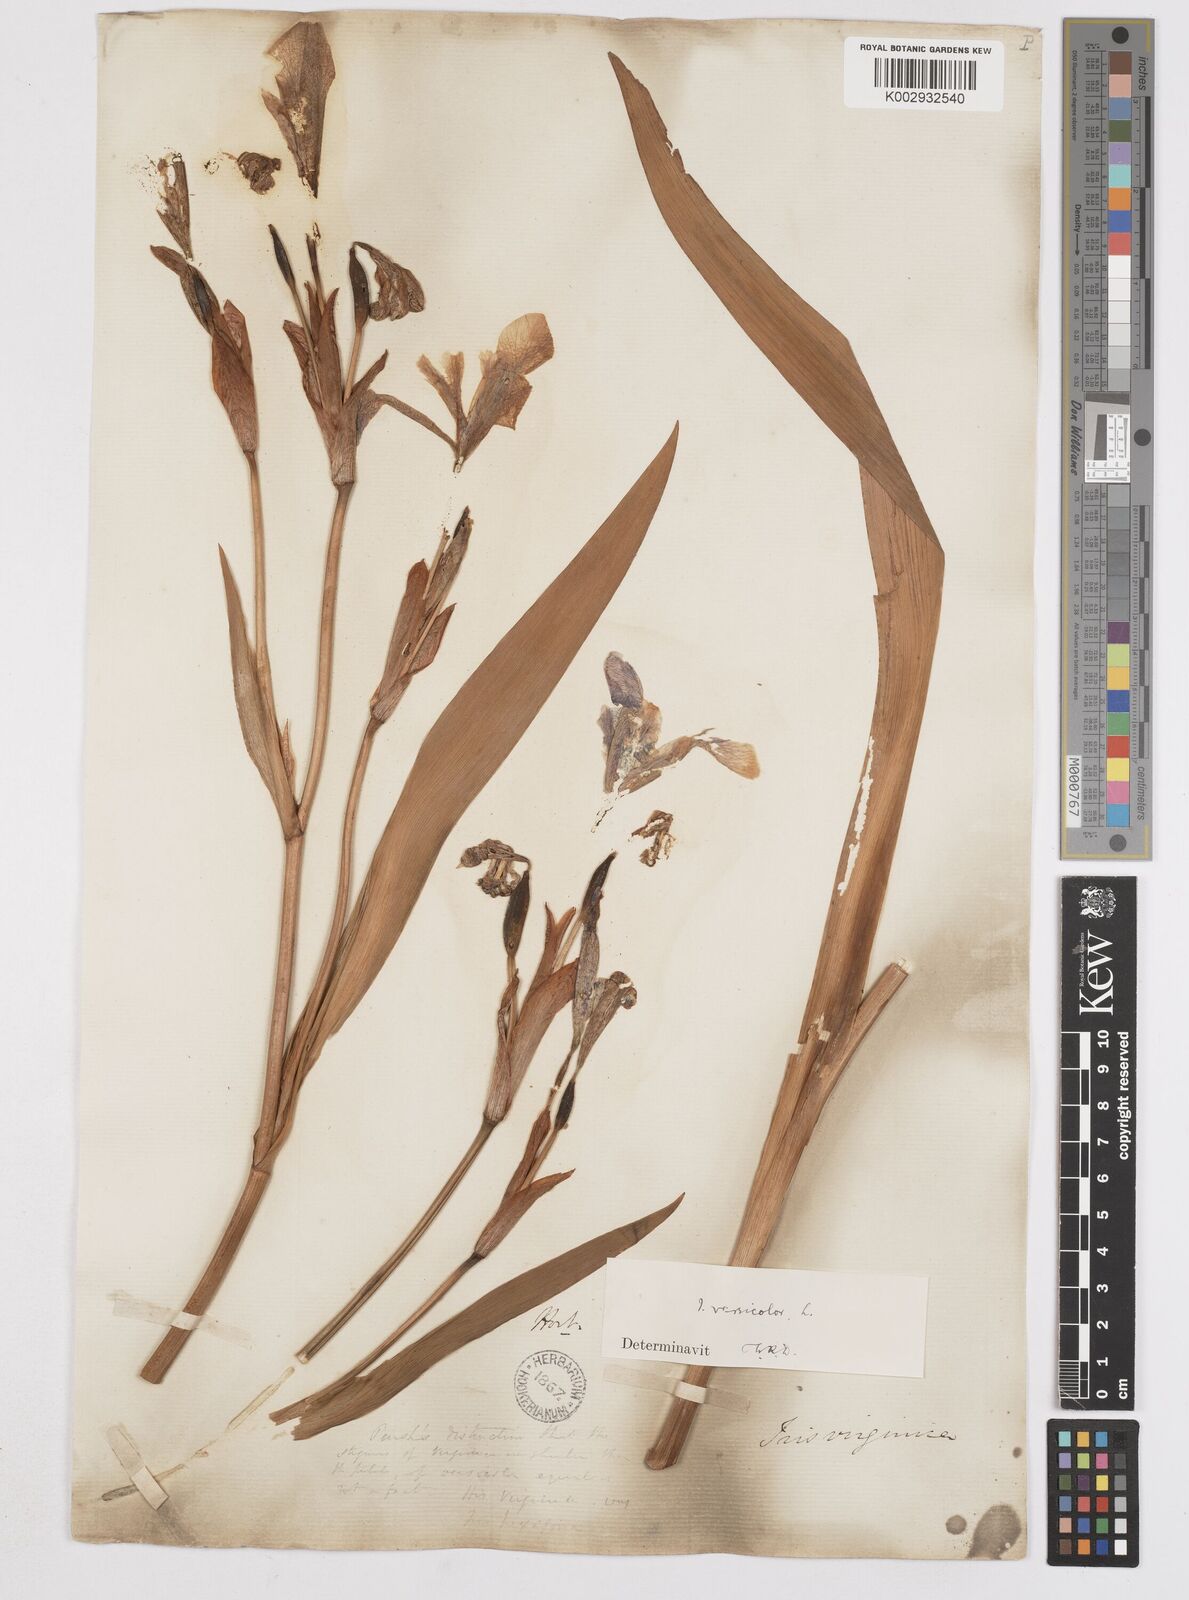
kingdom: Plantae
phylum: Tracheophyta
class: Liliopsida
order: Asparagales
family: Iridaceae
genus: Iris
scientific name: Iris versicolor
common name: Purple iris
